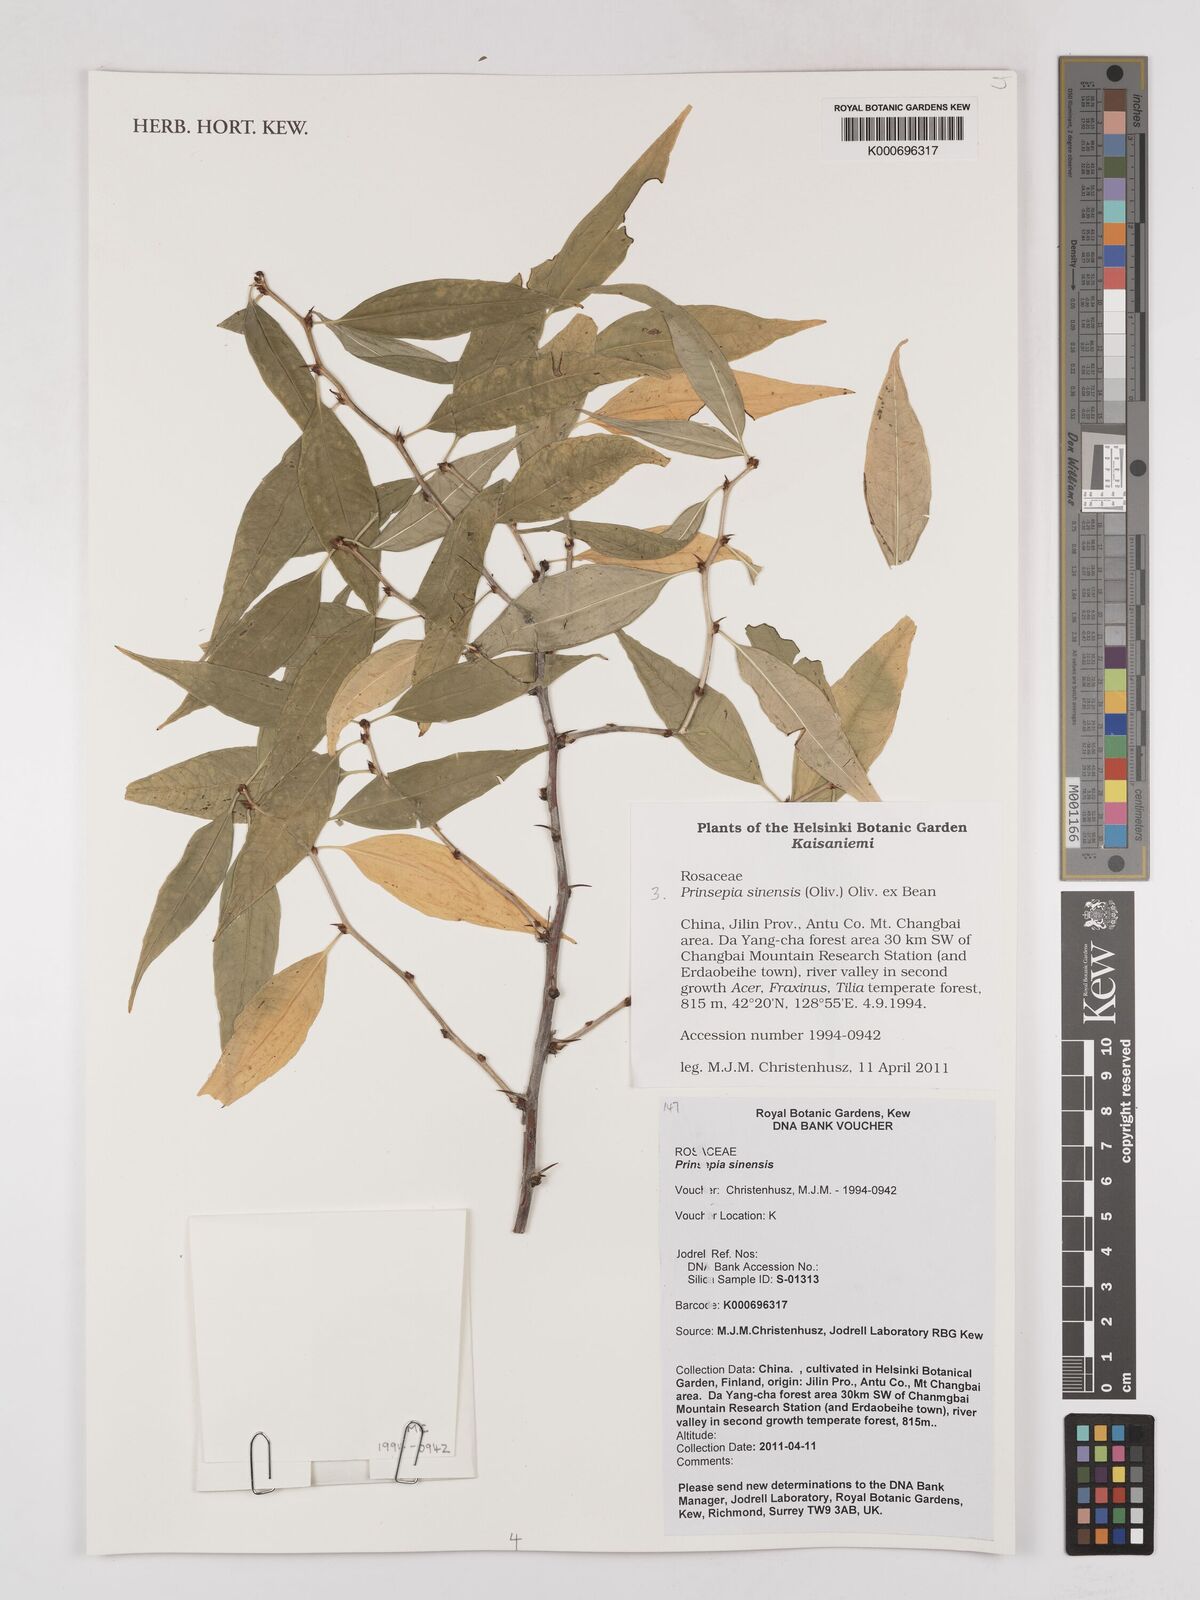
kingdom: Plantae
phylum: Tracheophyta
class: Magnoliopsida
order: Rosales
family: Rosaceae
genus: Prinsepia
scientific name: Prinsepia sinensis
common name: Cherry prinsepia
